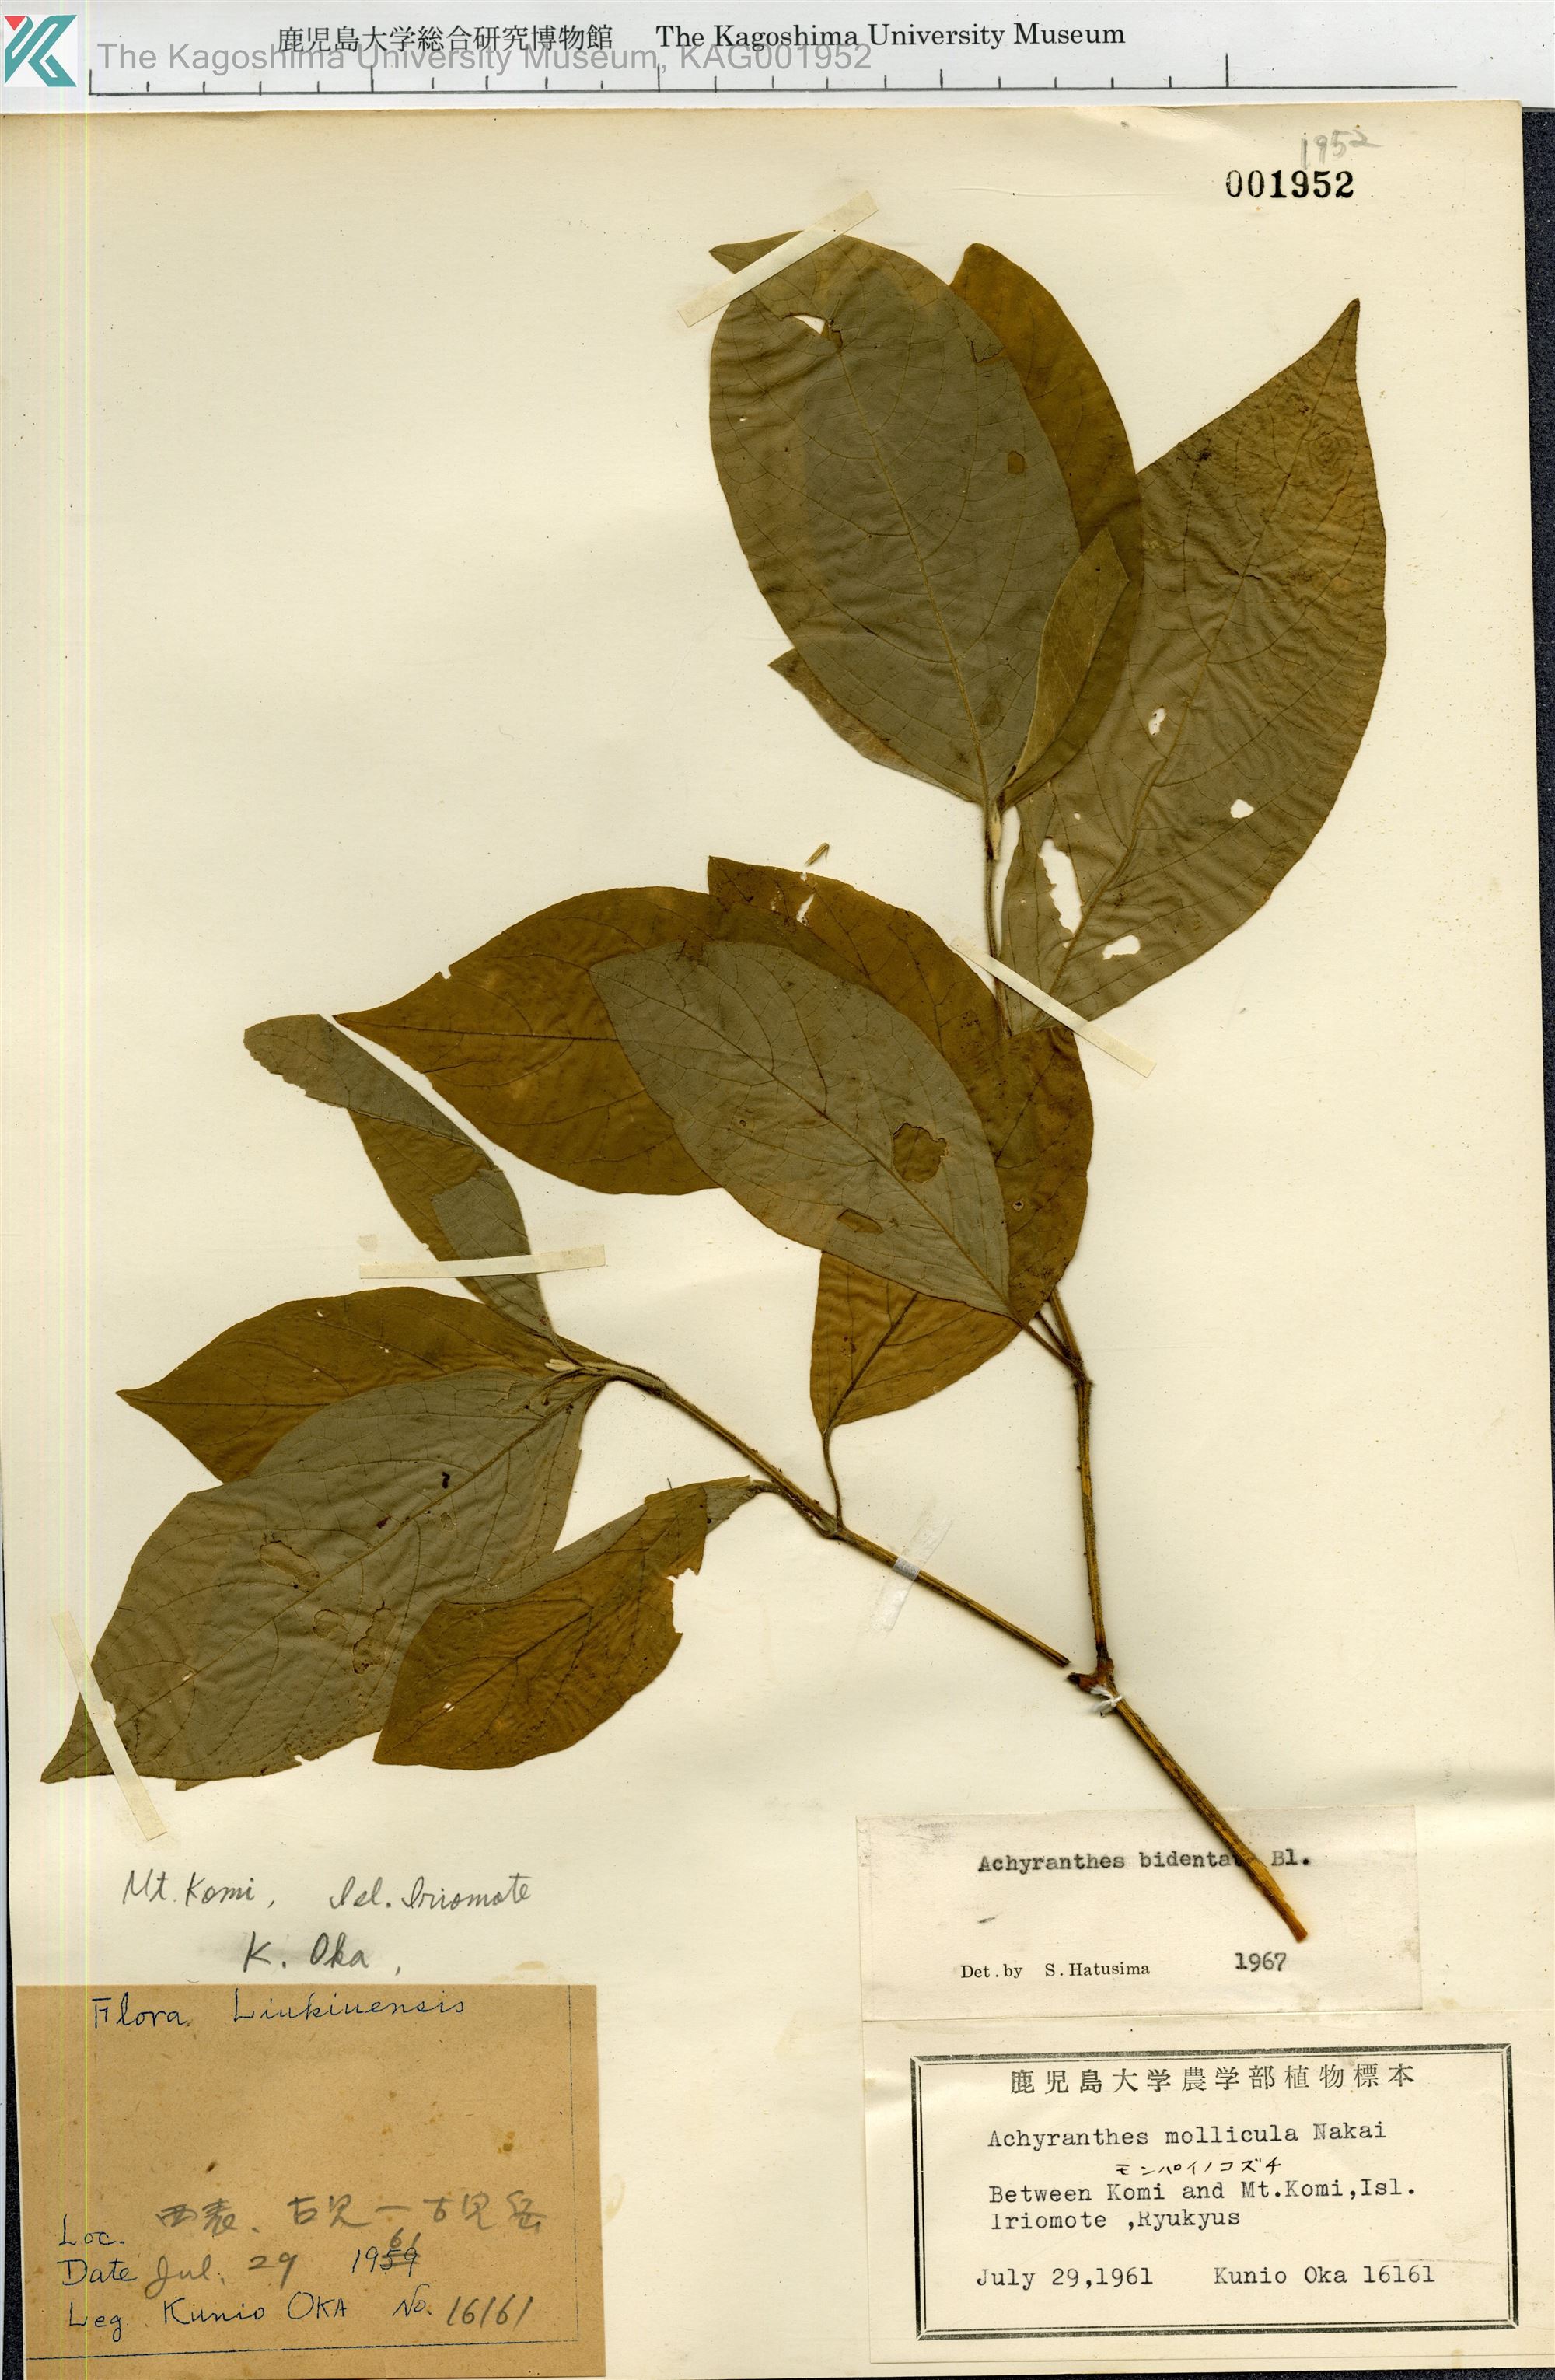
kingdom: Plantae
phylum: Tracheophyta
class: Magnoliopsida
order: Caryophyllales
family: Amaranthaceae
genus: Achyranthes
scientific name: Achyranthes bidentata
